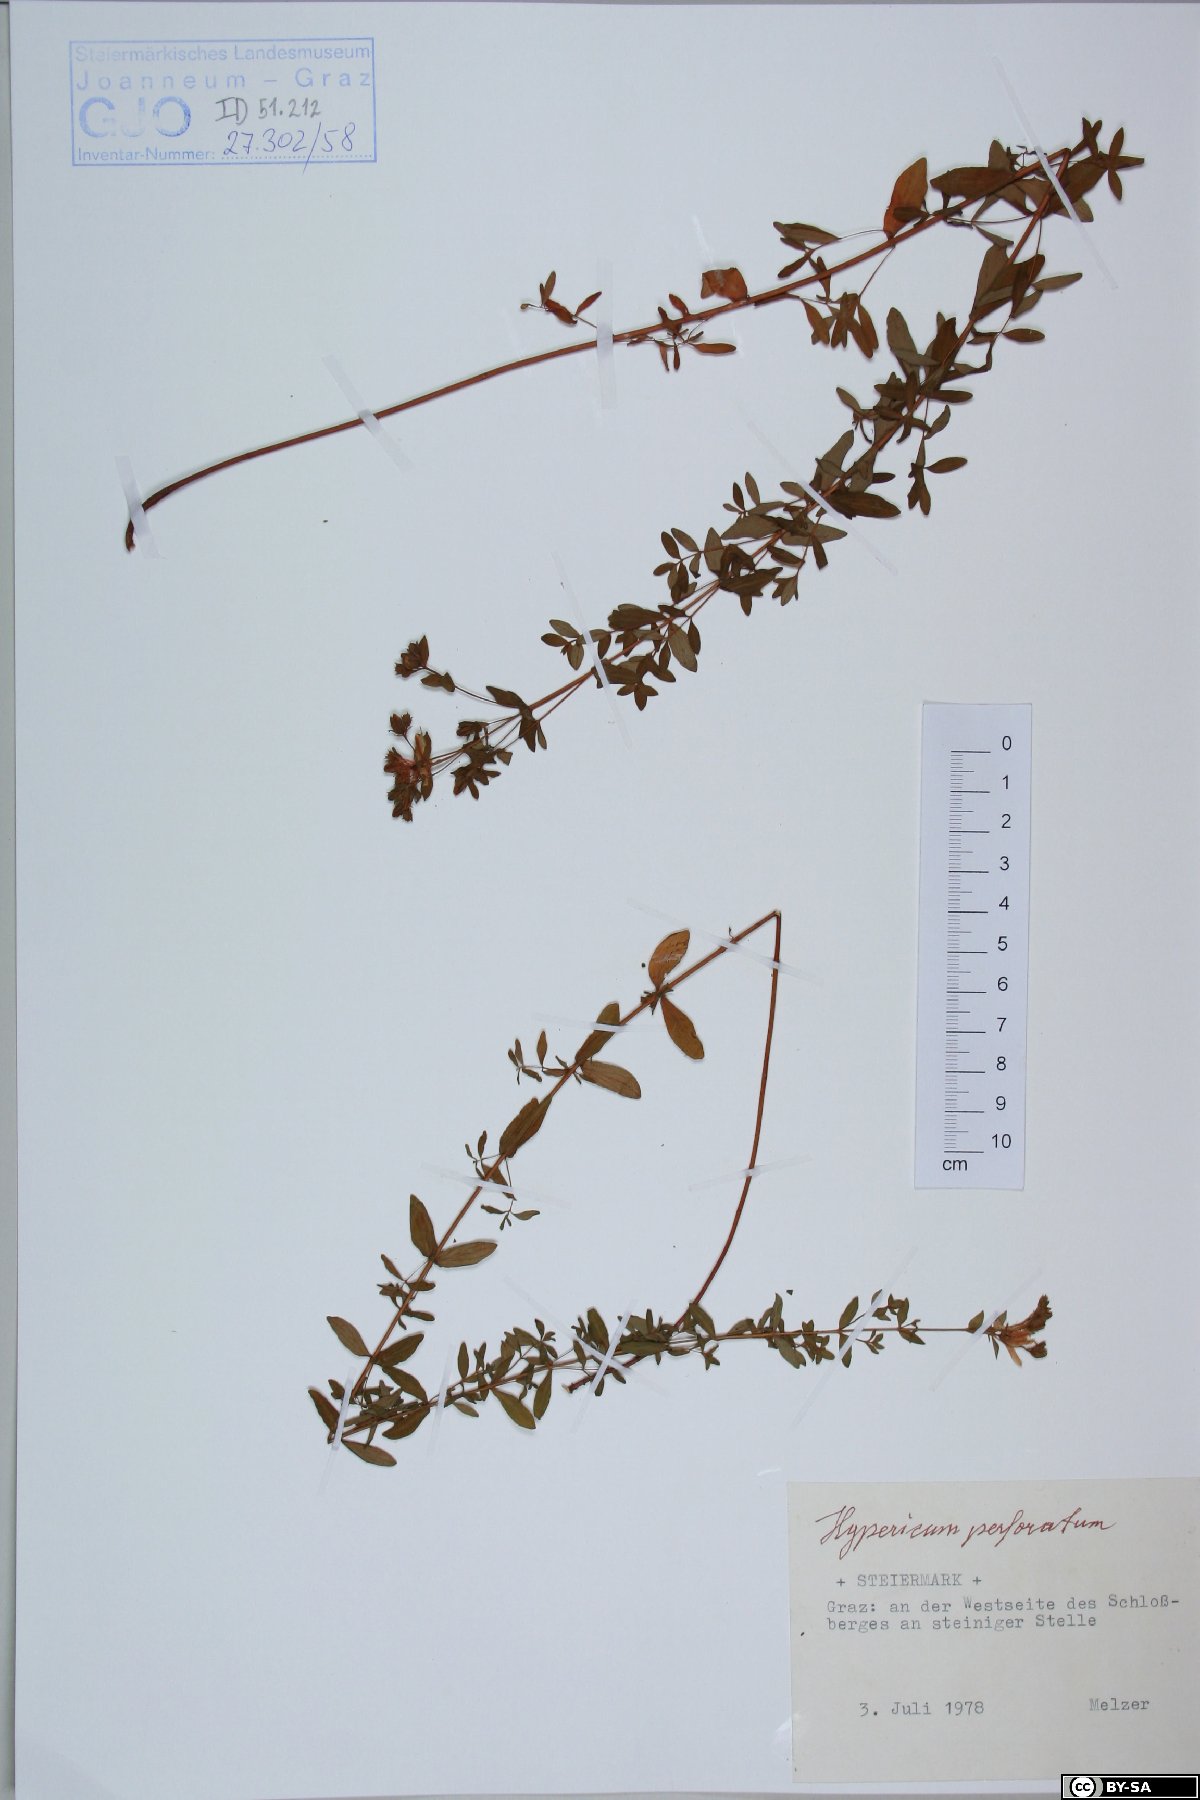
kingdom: Plantae
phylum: Tracheophyta
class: Magnoliopsida
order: Malpighiales
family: Hypericaceae
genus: Hypericum
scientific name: Hypericum perforatum
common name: Common st. johnswort
